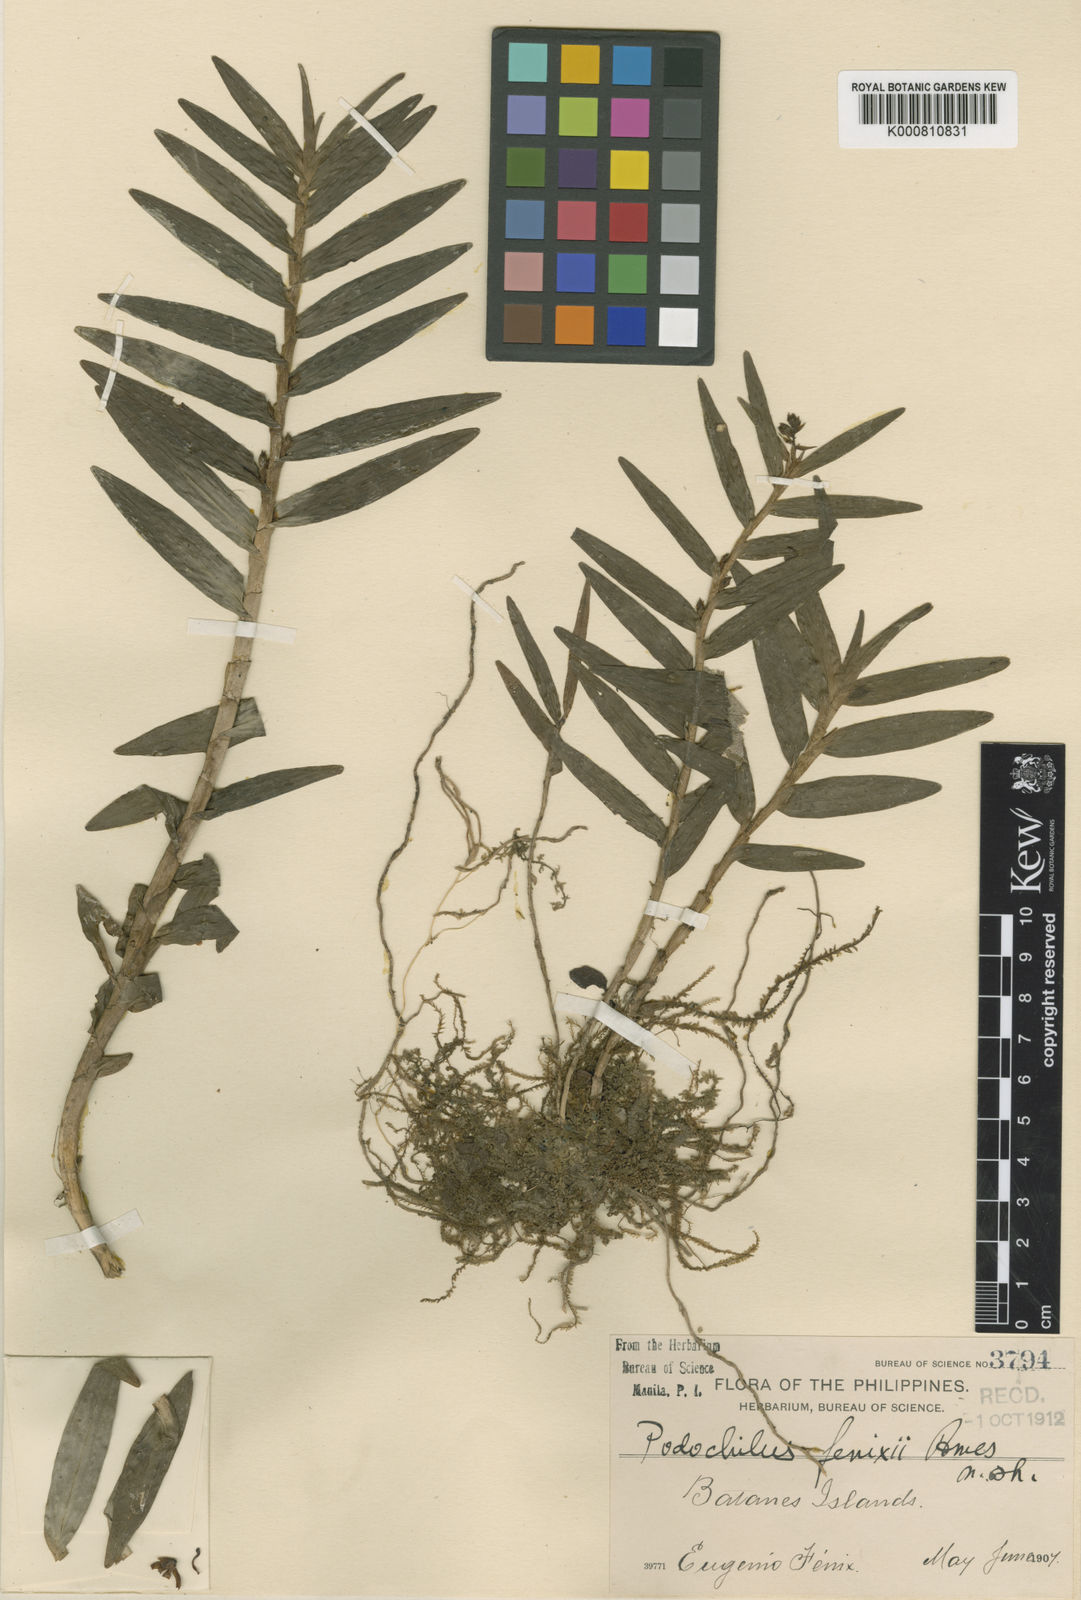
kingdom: Plantae
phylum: Tracheophyta
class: Liliopsida
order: Asparagales
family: Orchidaceae
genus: Appendicula
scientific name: Appendicula fenixii
